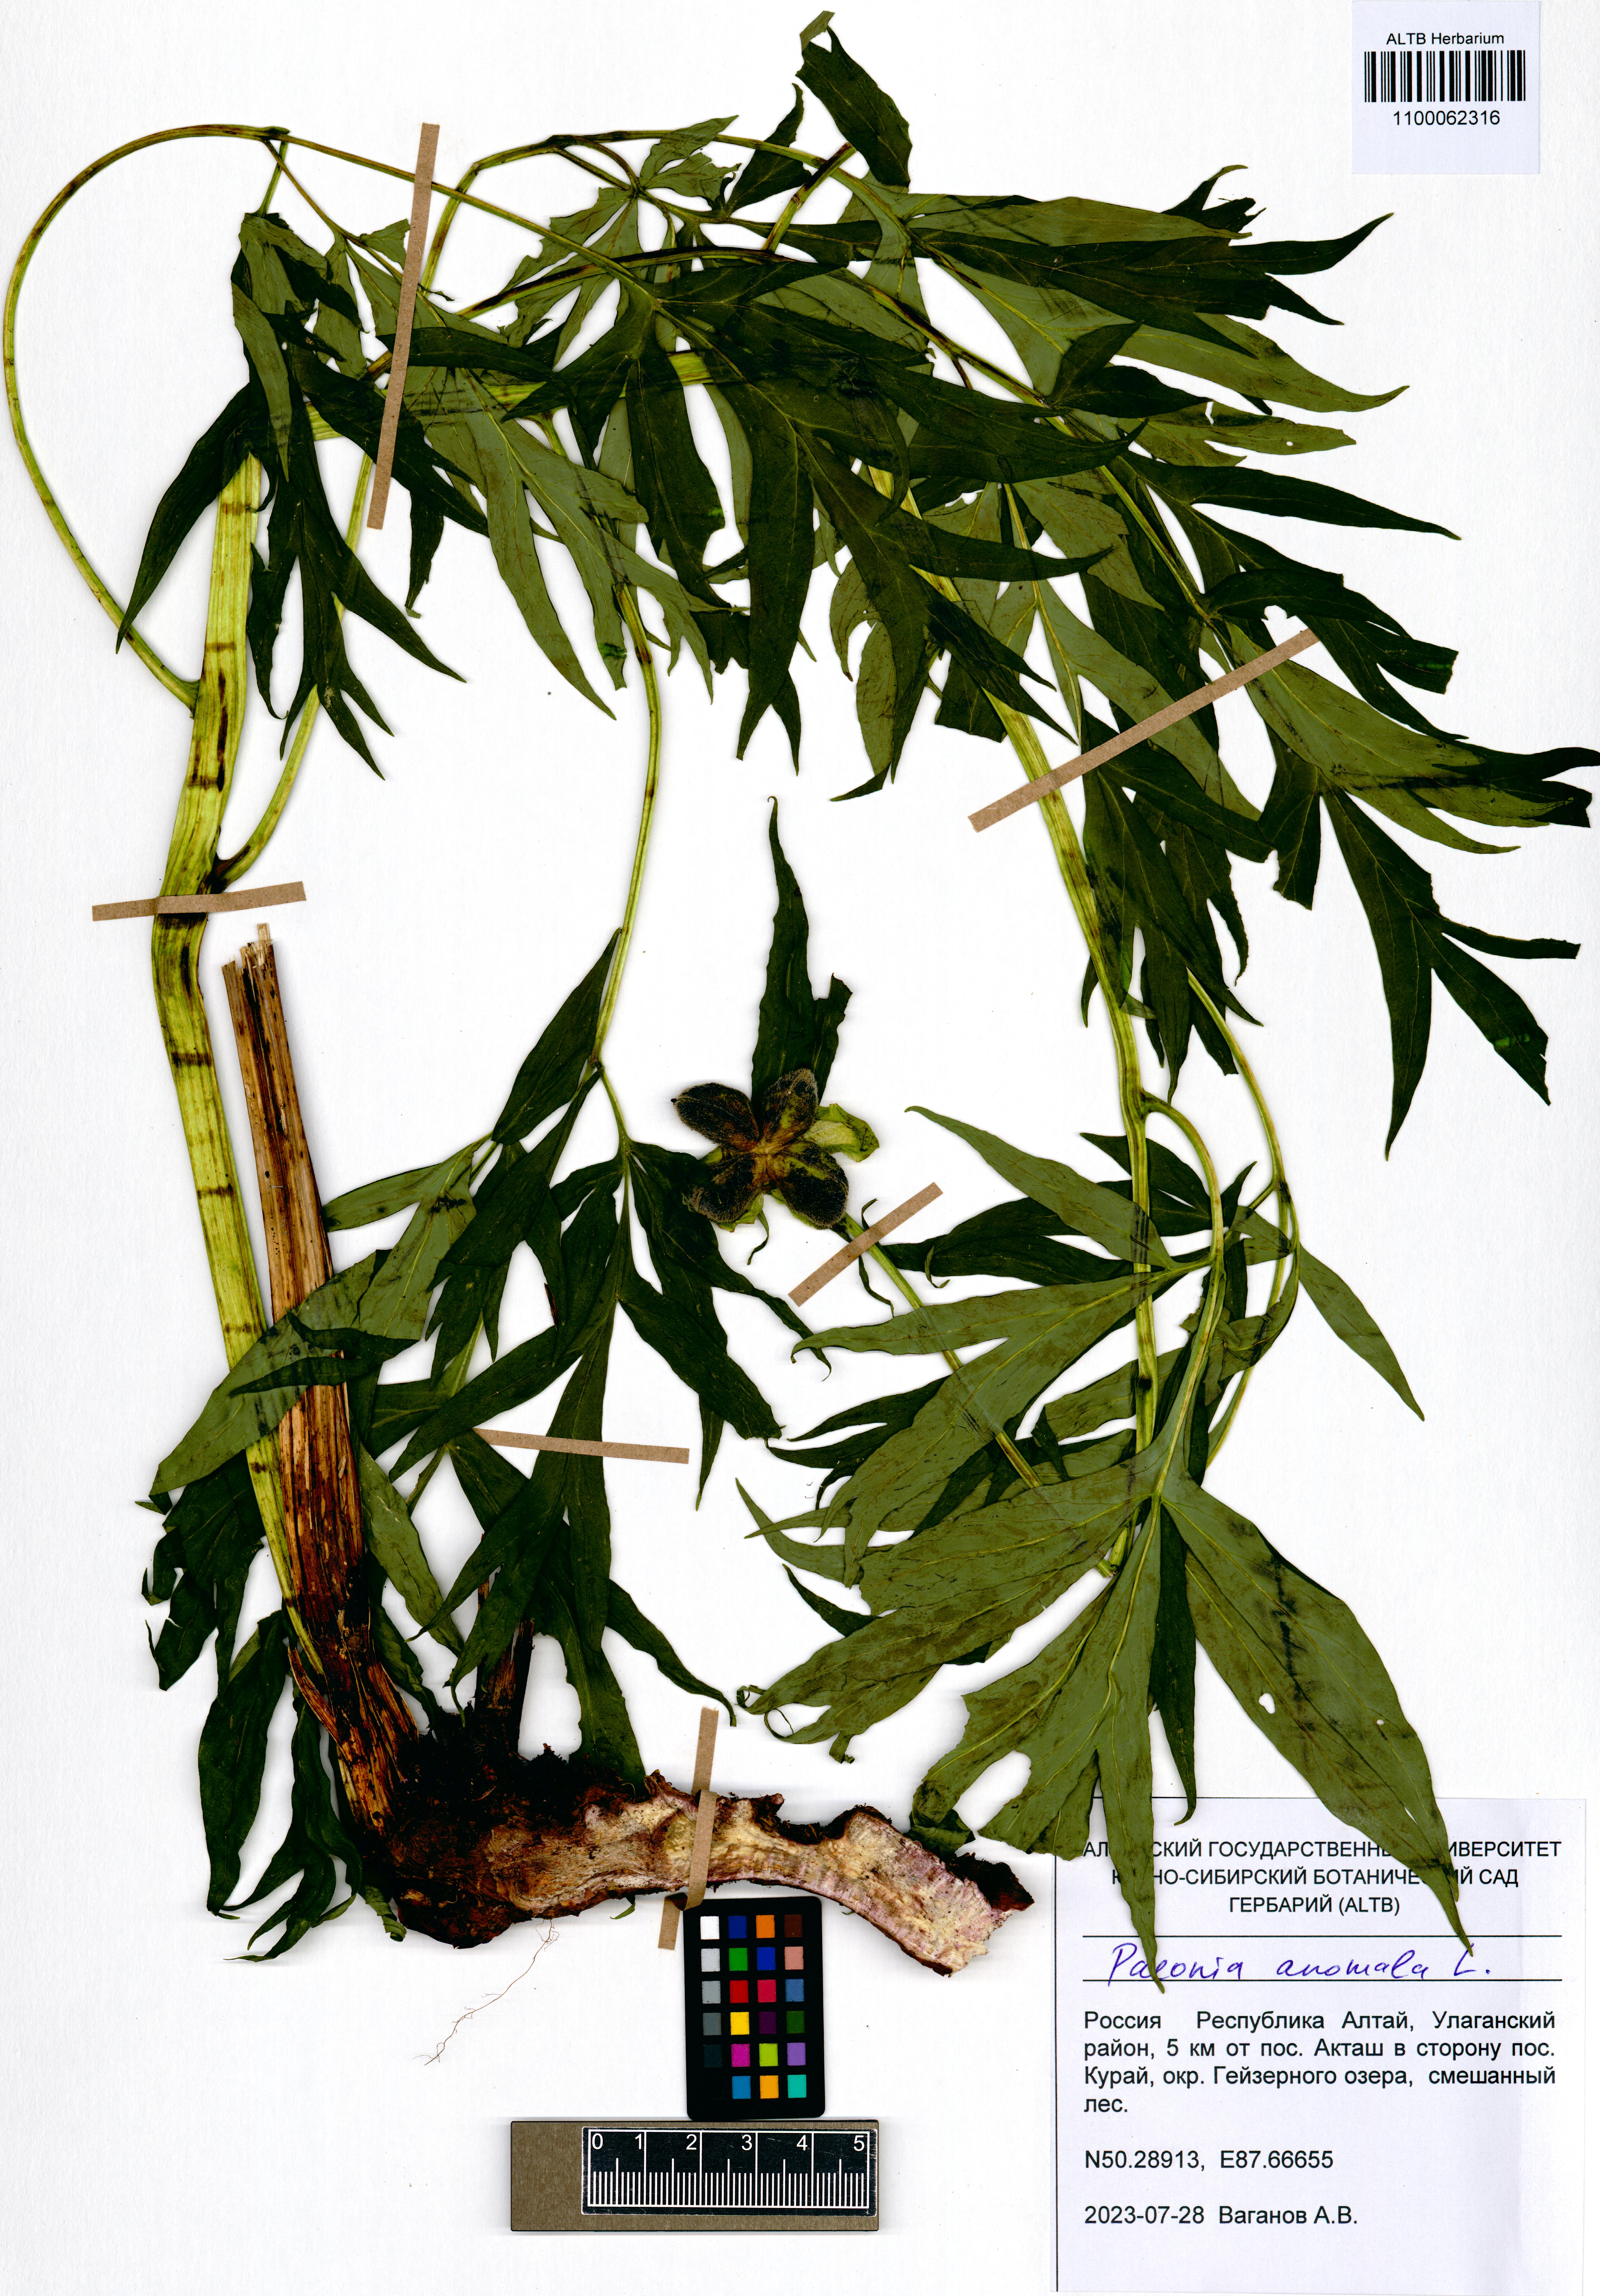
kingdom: Plantae
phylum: Tracheophyta
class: Magnoliopsida
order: Saxifragales
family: Paeoniaceae
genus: Paeonia
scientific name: Paeonia anomala
